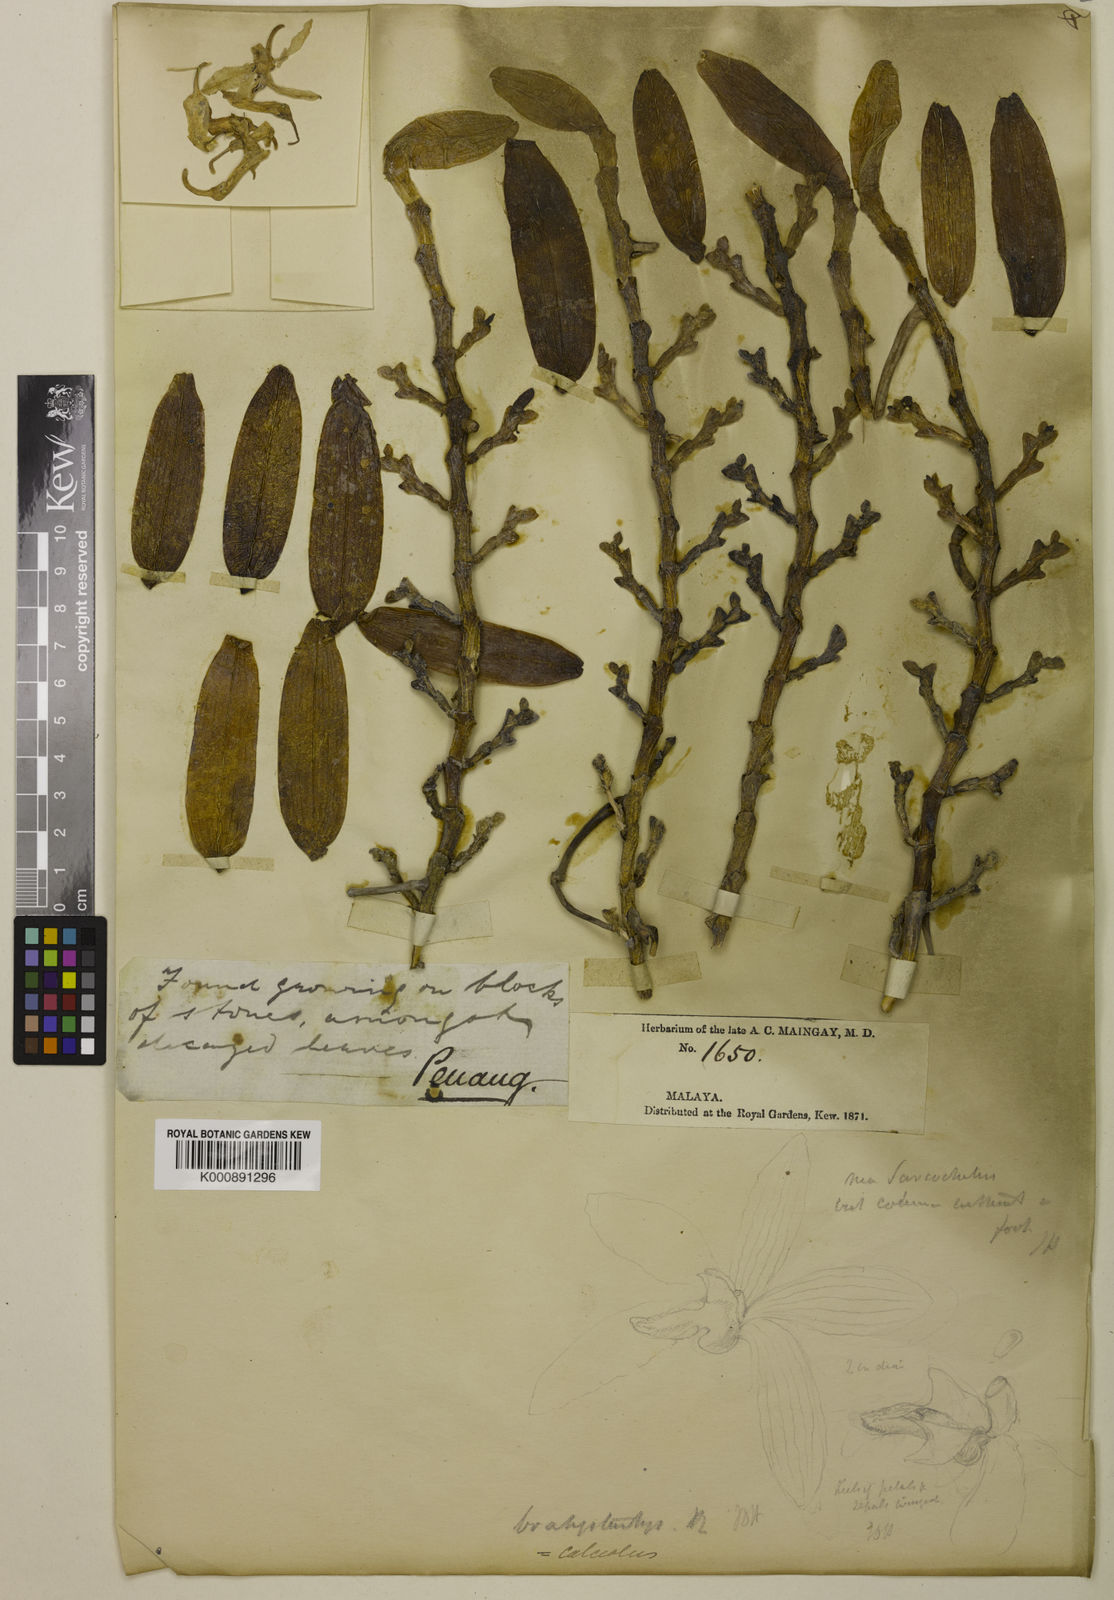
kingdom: Plantae
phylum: Tracheophyta
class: Liliopsida
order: Asparagales
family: Orchidaceae
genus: Thrixspermum
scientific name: Thrixspermum calceolus
